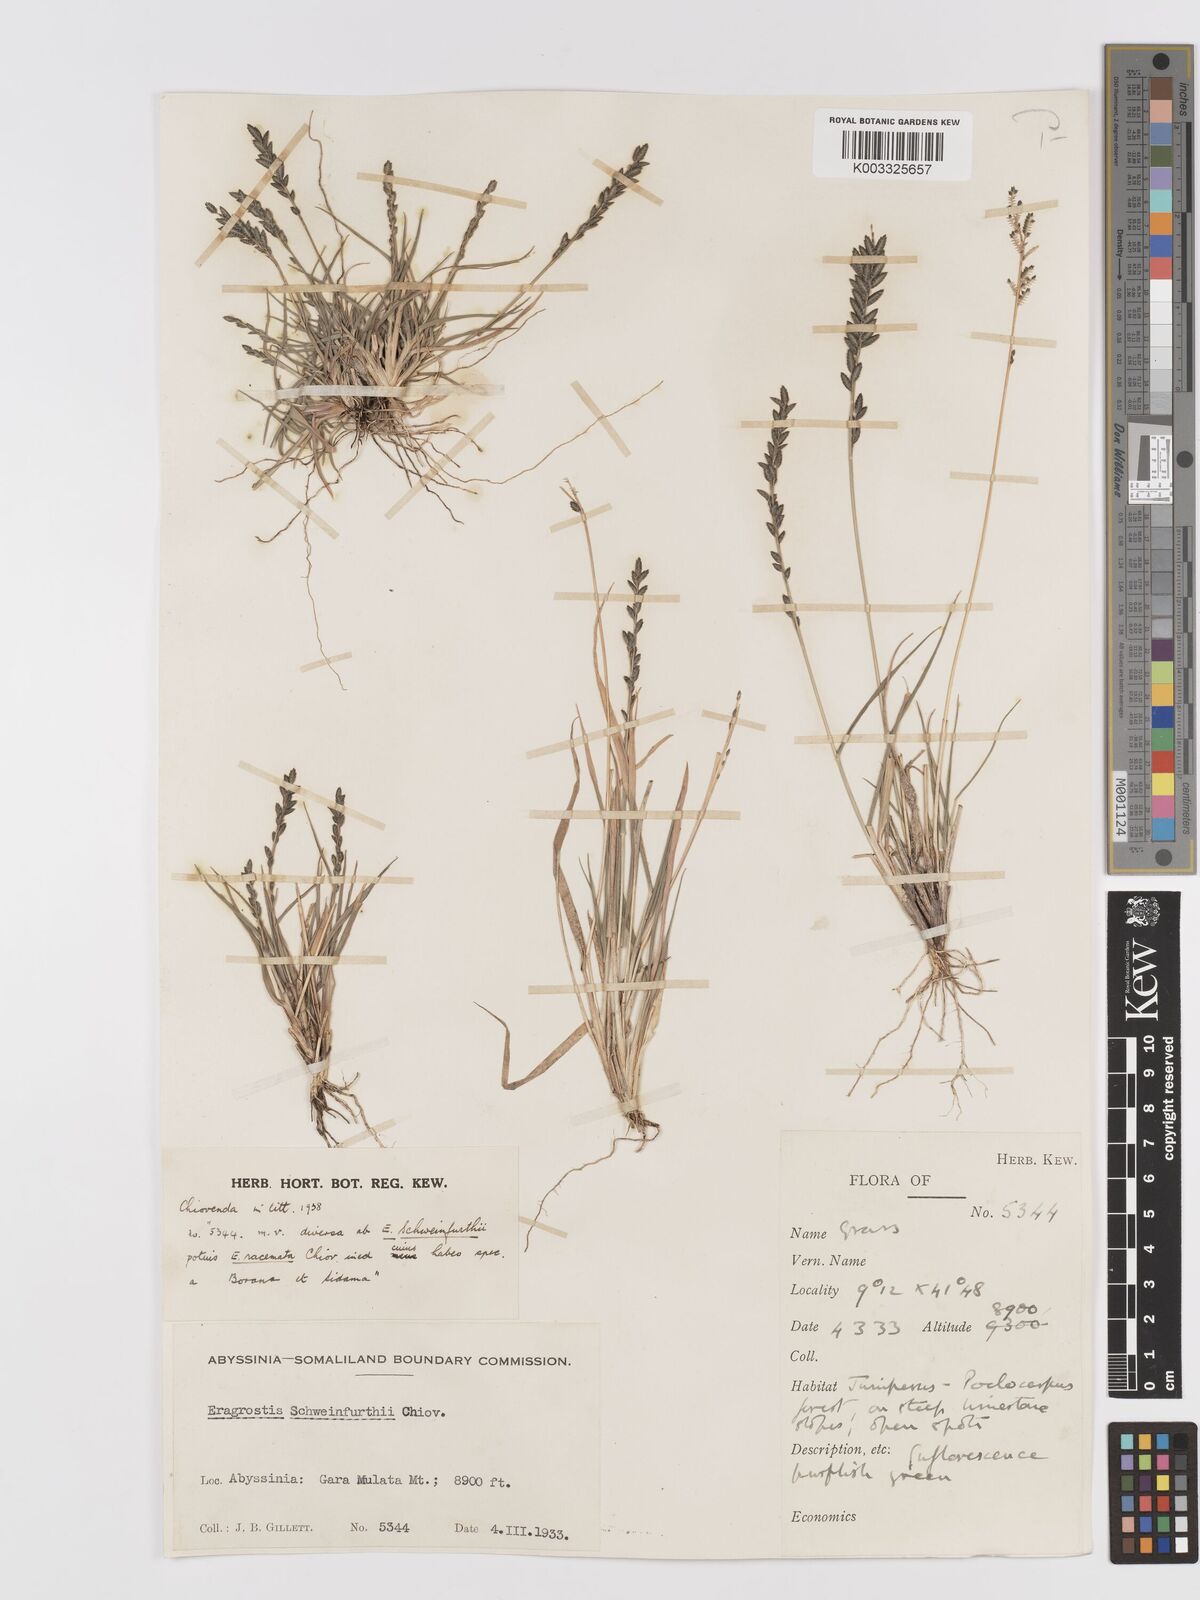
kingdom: Plantae
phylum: Tracheophyta
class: Liliopsida
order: Poales
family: Poaceae
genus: Eragrostis
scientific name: Eragrostis schweinfurthii
